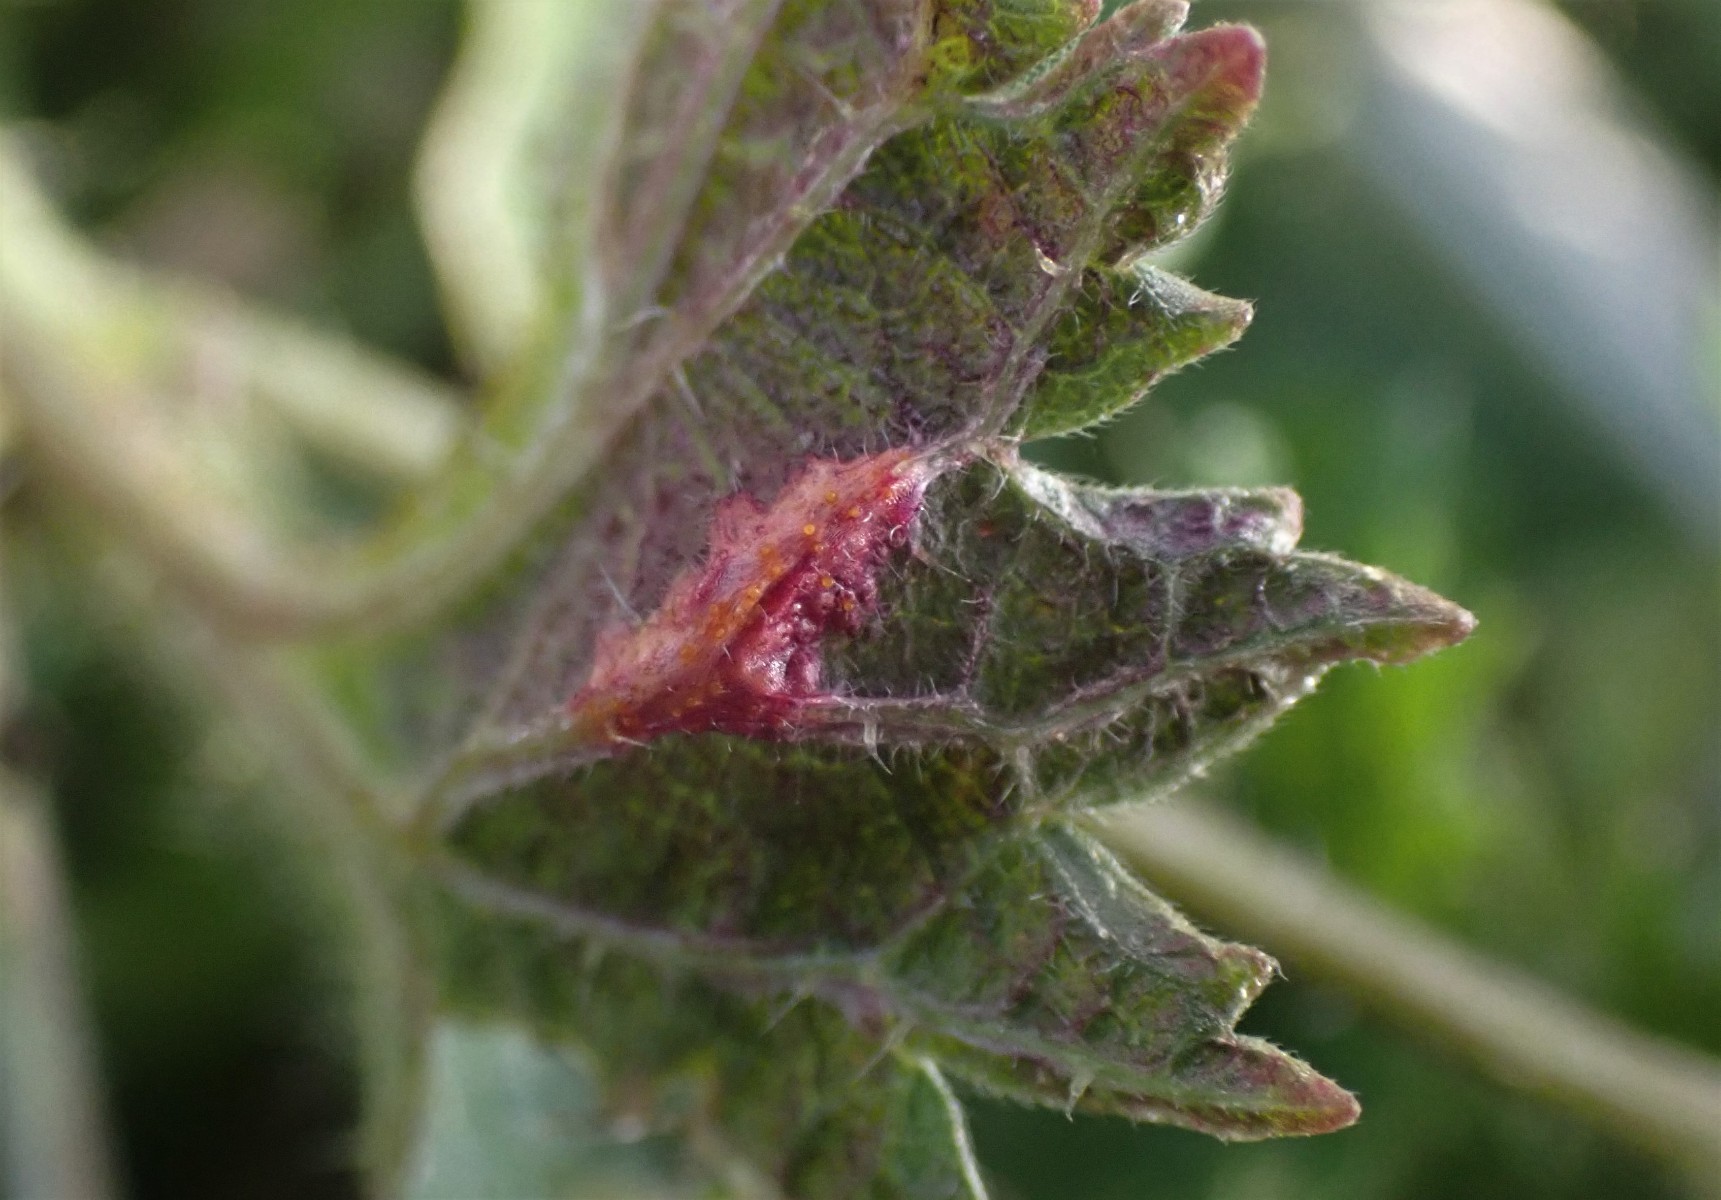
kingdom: Fungi
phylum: Basidiomycota
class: Pucciniomycetes
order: Pucciniales
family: Pucciniaceae
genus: Puccinia
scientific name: Puccinia urticata
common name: nældegalle-tvecellerust
